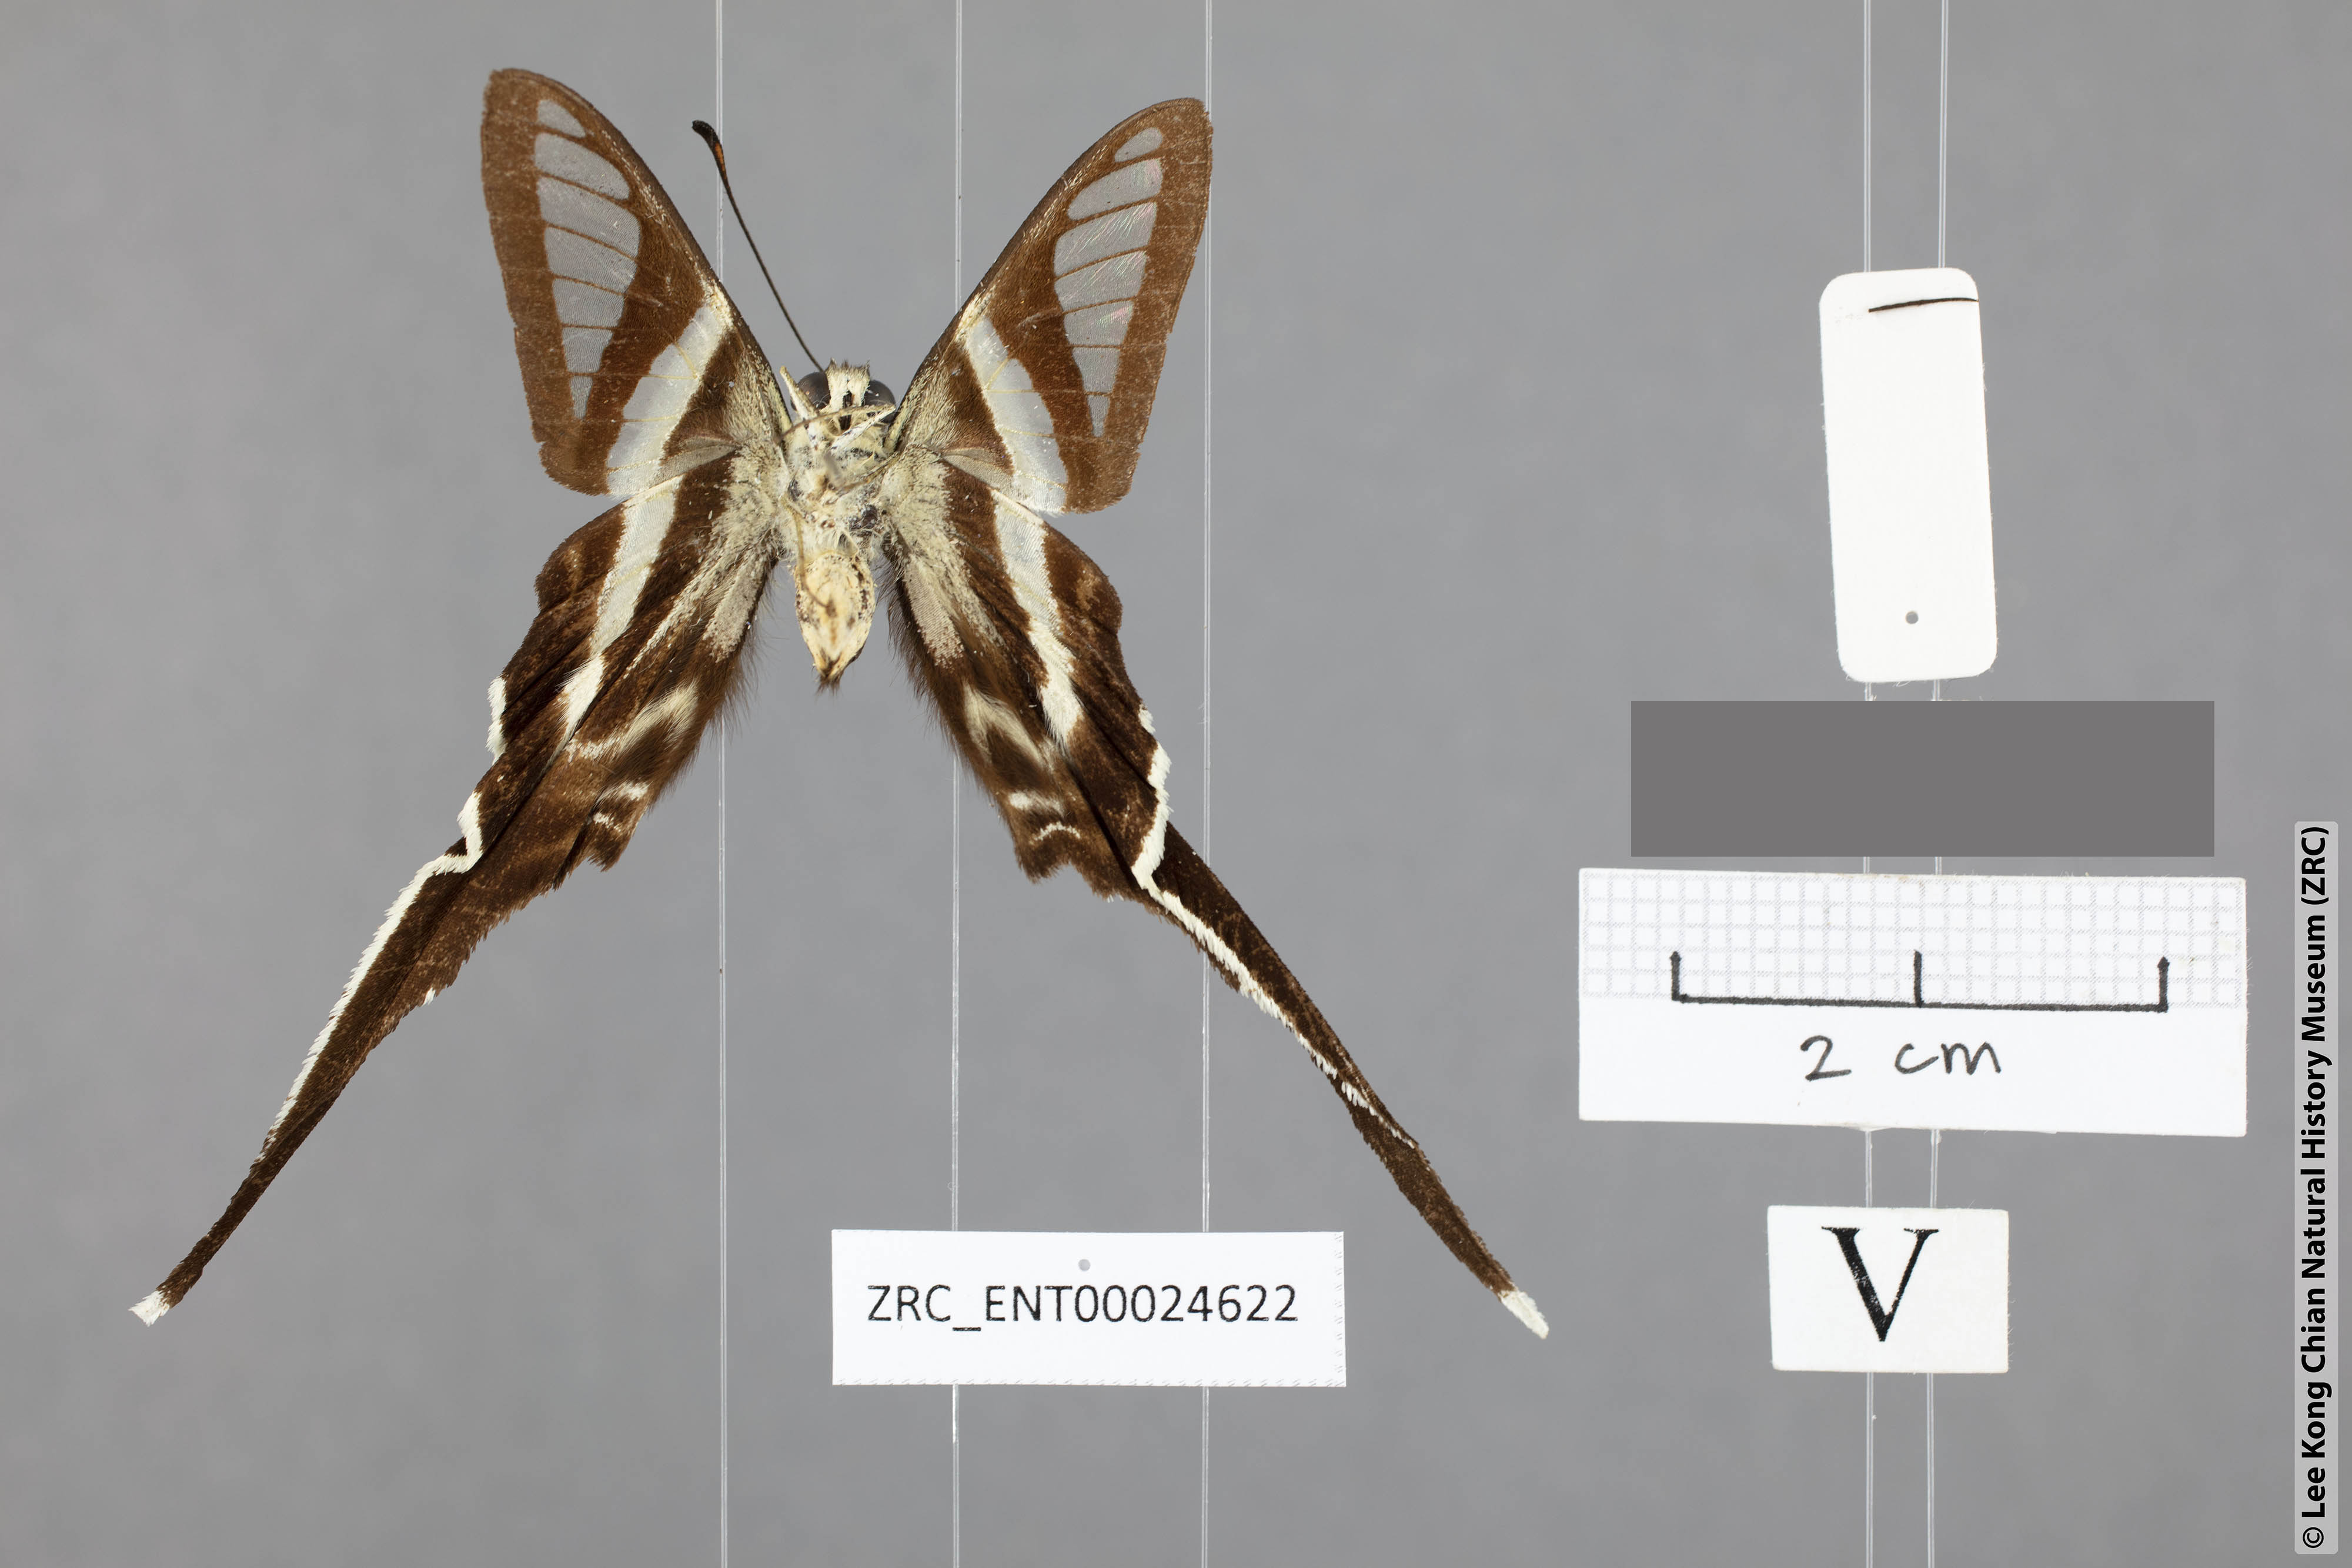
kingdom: Animalia
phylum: Arthropoda
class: Insecta
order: Lepidoptera
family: Papilionidae
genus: Lamproptera
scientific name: Lamproptera curius
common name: White dragontail
